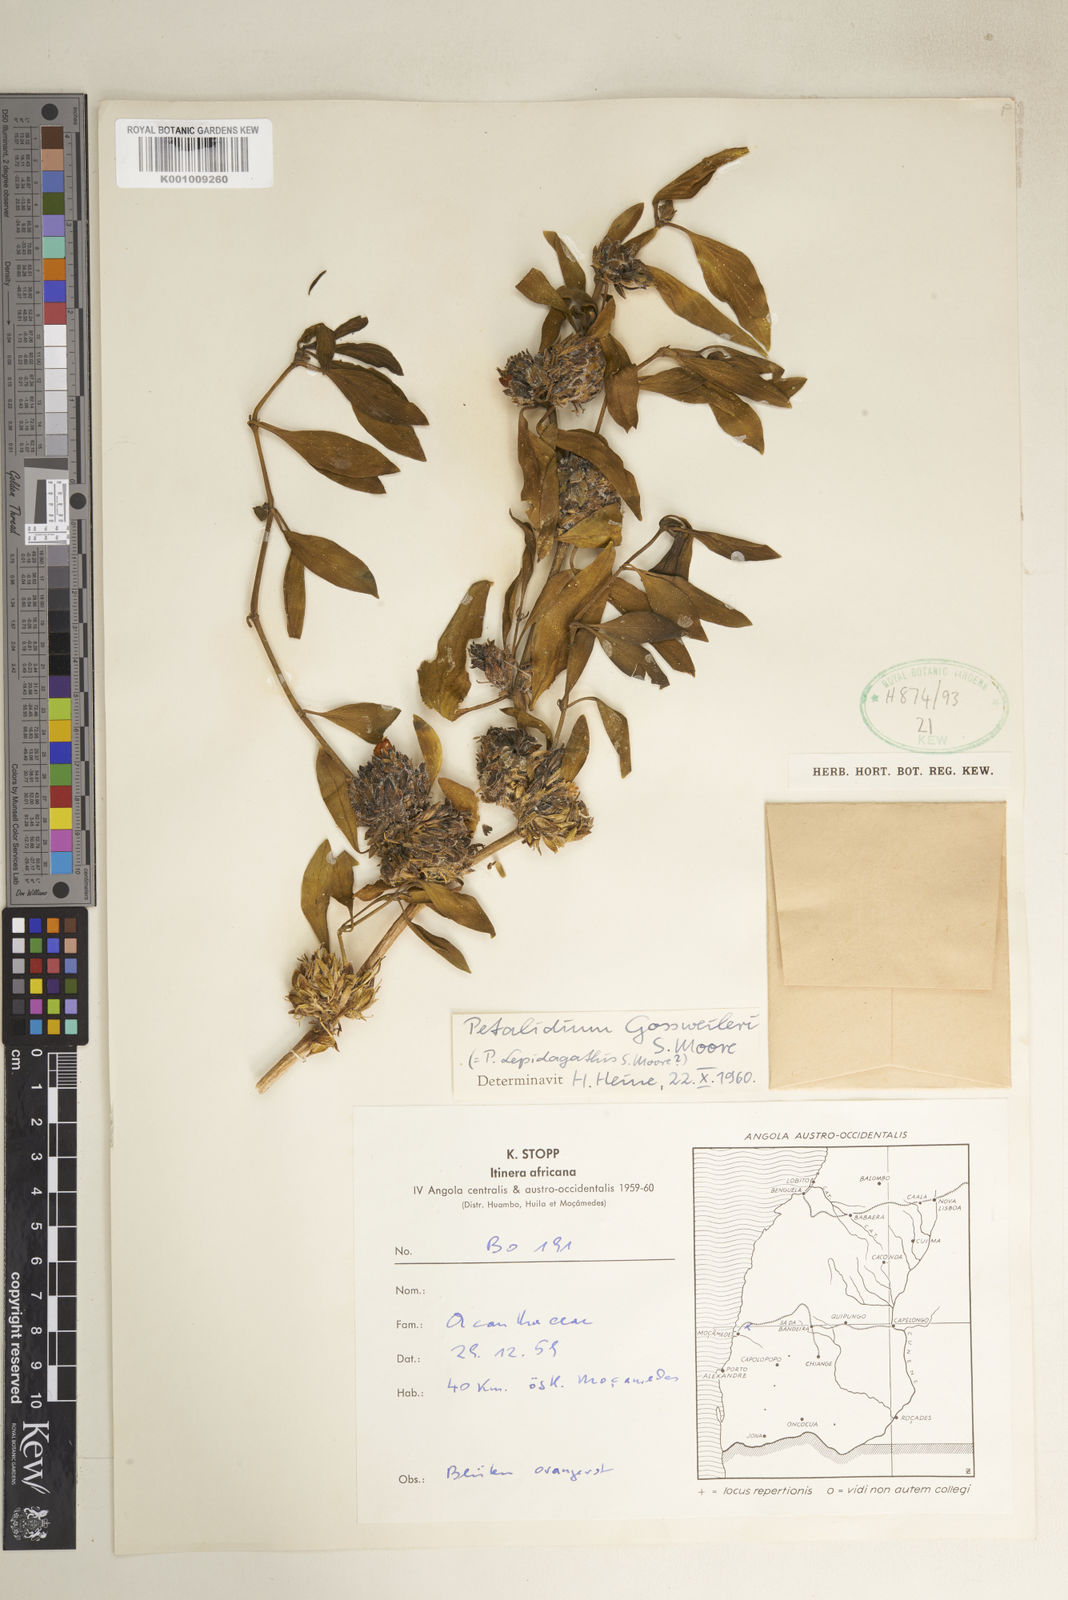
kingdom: Plantae
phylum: Tracheophyta
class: Magnoliopsida
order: Lamiales
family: Acanthaceae
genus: Petalidium
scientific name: Petalidium gossweileri
